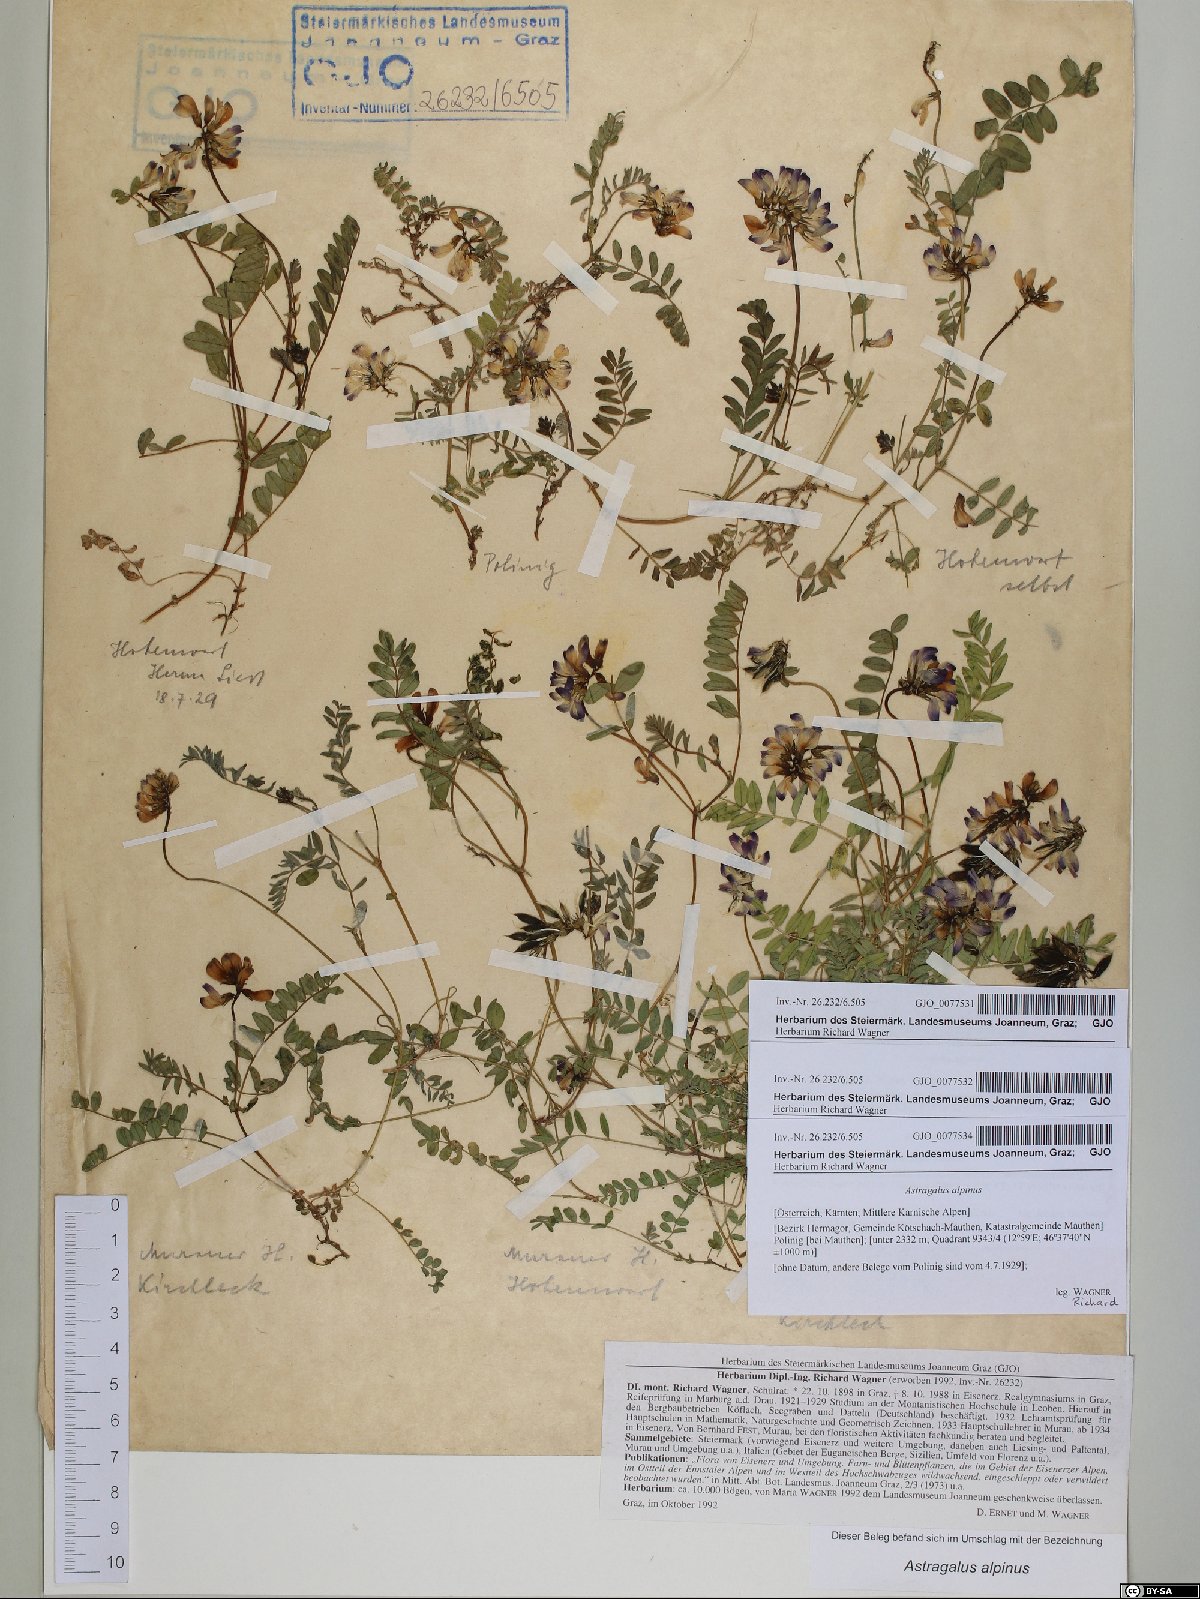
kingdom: Plantae
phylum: Tracheophyta
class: Magnoliopsida
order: Fabales
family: Fabaceae
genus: Astragalus
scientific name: Astragalus alpinus
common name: Alpine milk-vetch
